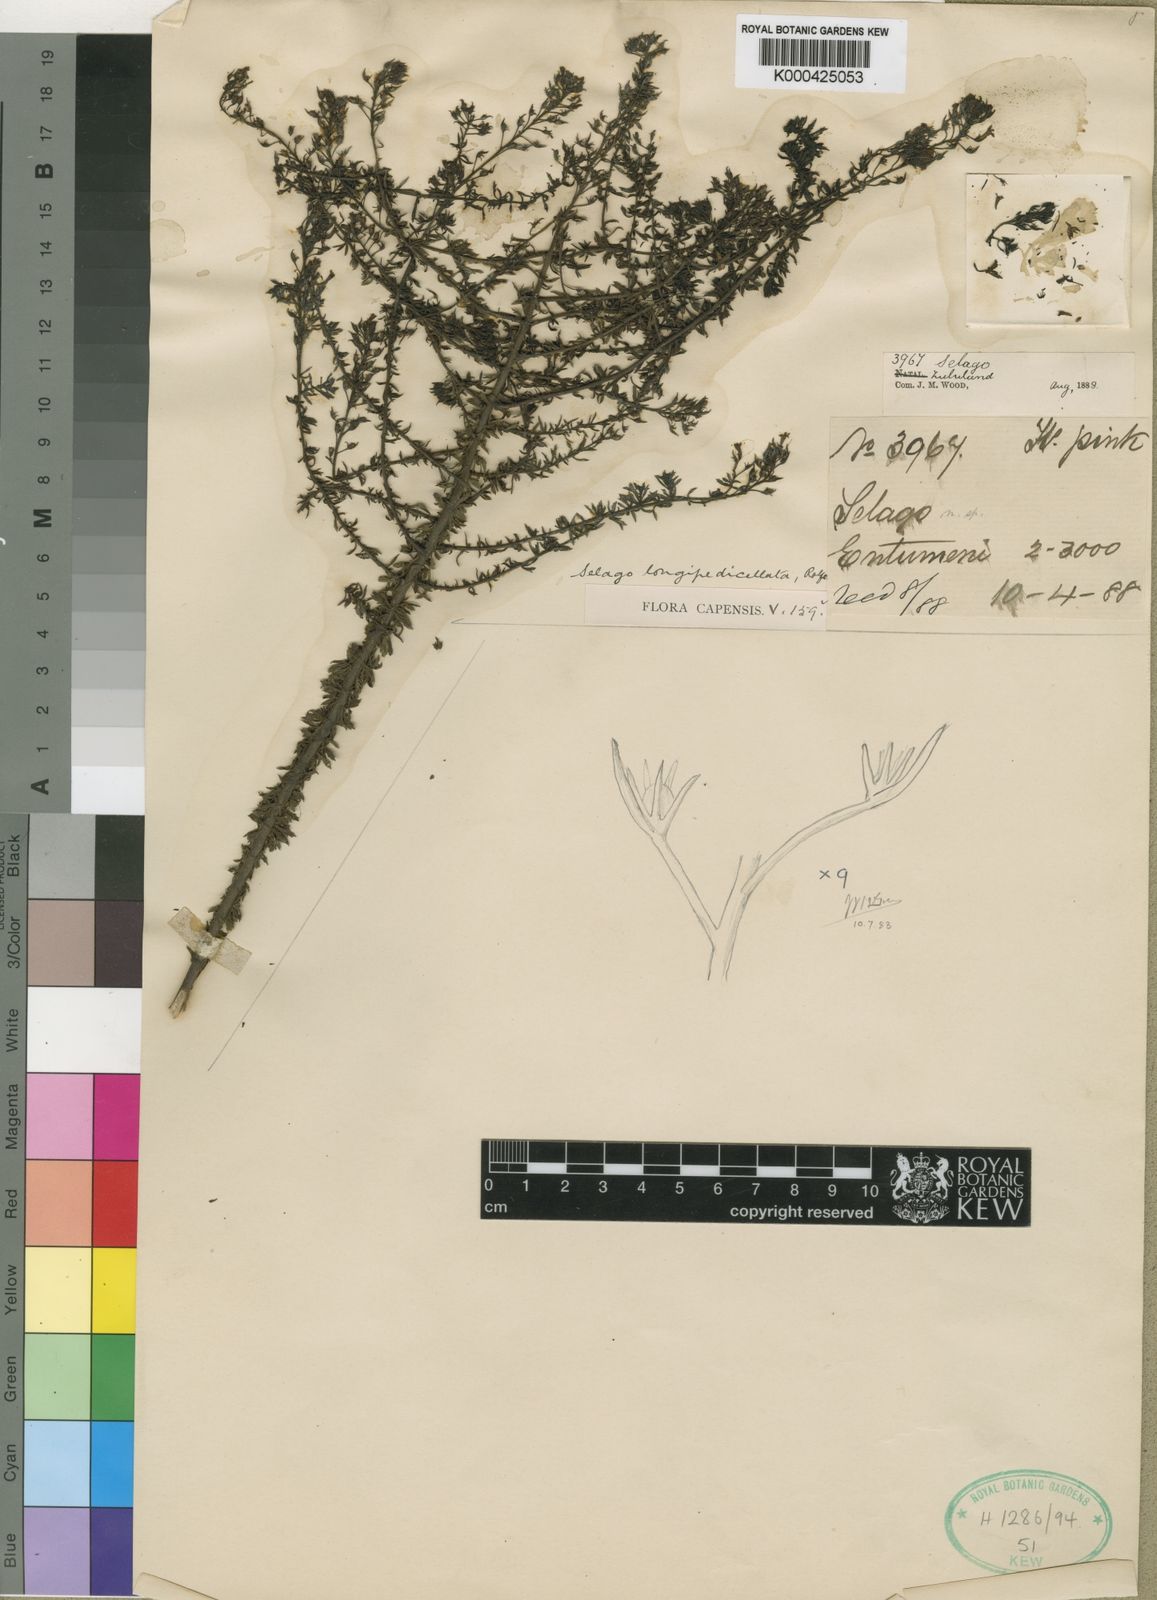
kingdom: Plantae
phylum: Tracheophyta
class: Magnoliopsida
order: Lamiales
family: Scrophulariaceae
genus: Selago
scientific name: Selago longipedicellata
